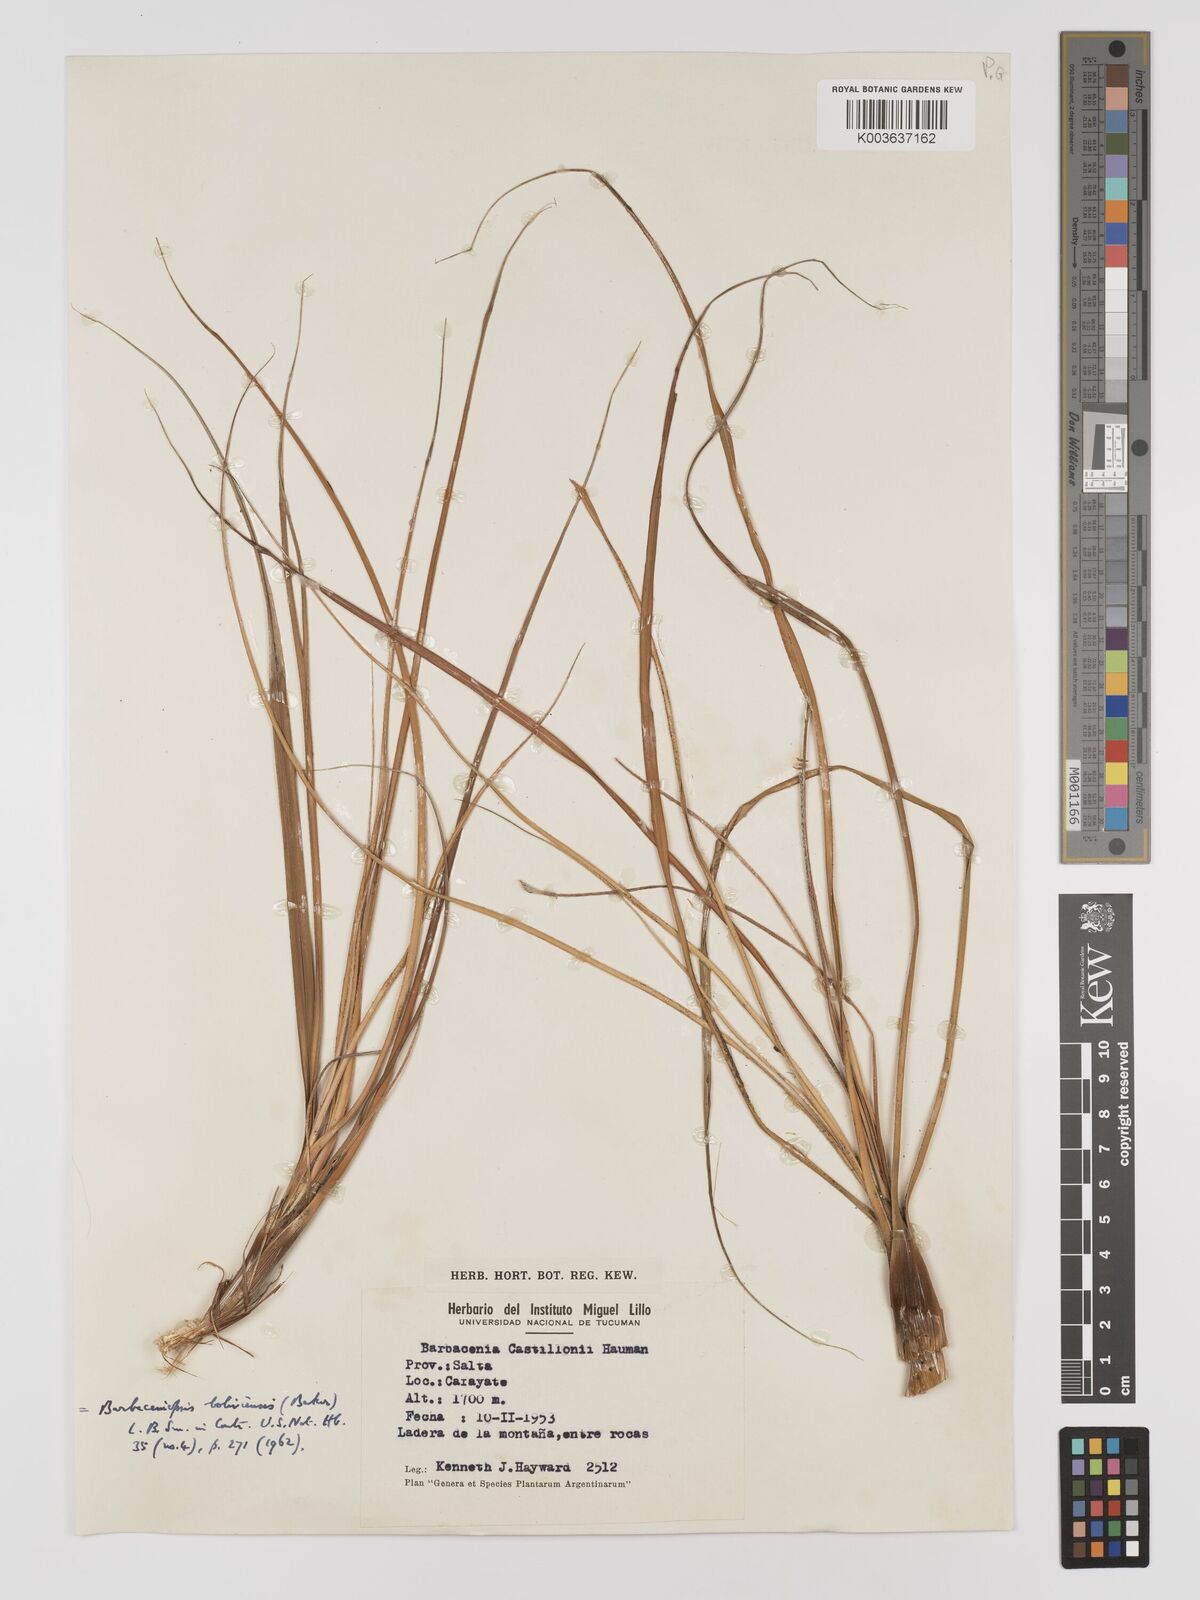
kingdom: Plantae
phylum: Tracheophyta
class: Liliopsida
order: Pandanales
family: Velloziaceae
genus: Barbaceniopsis
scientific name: Barbaceniopsis boliviensis
